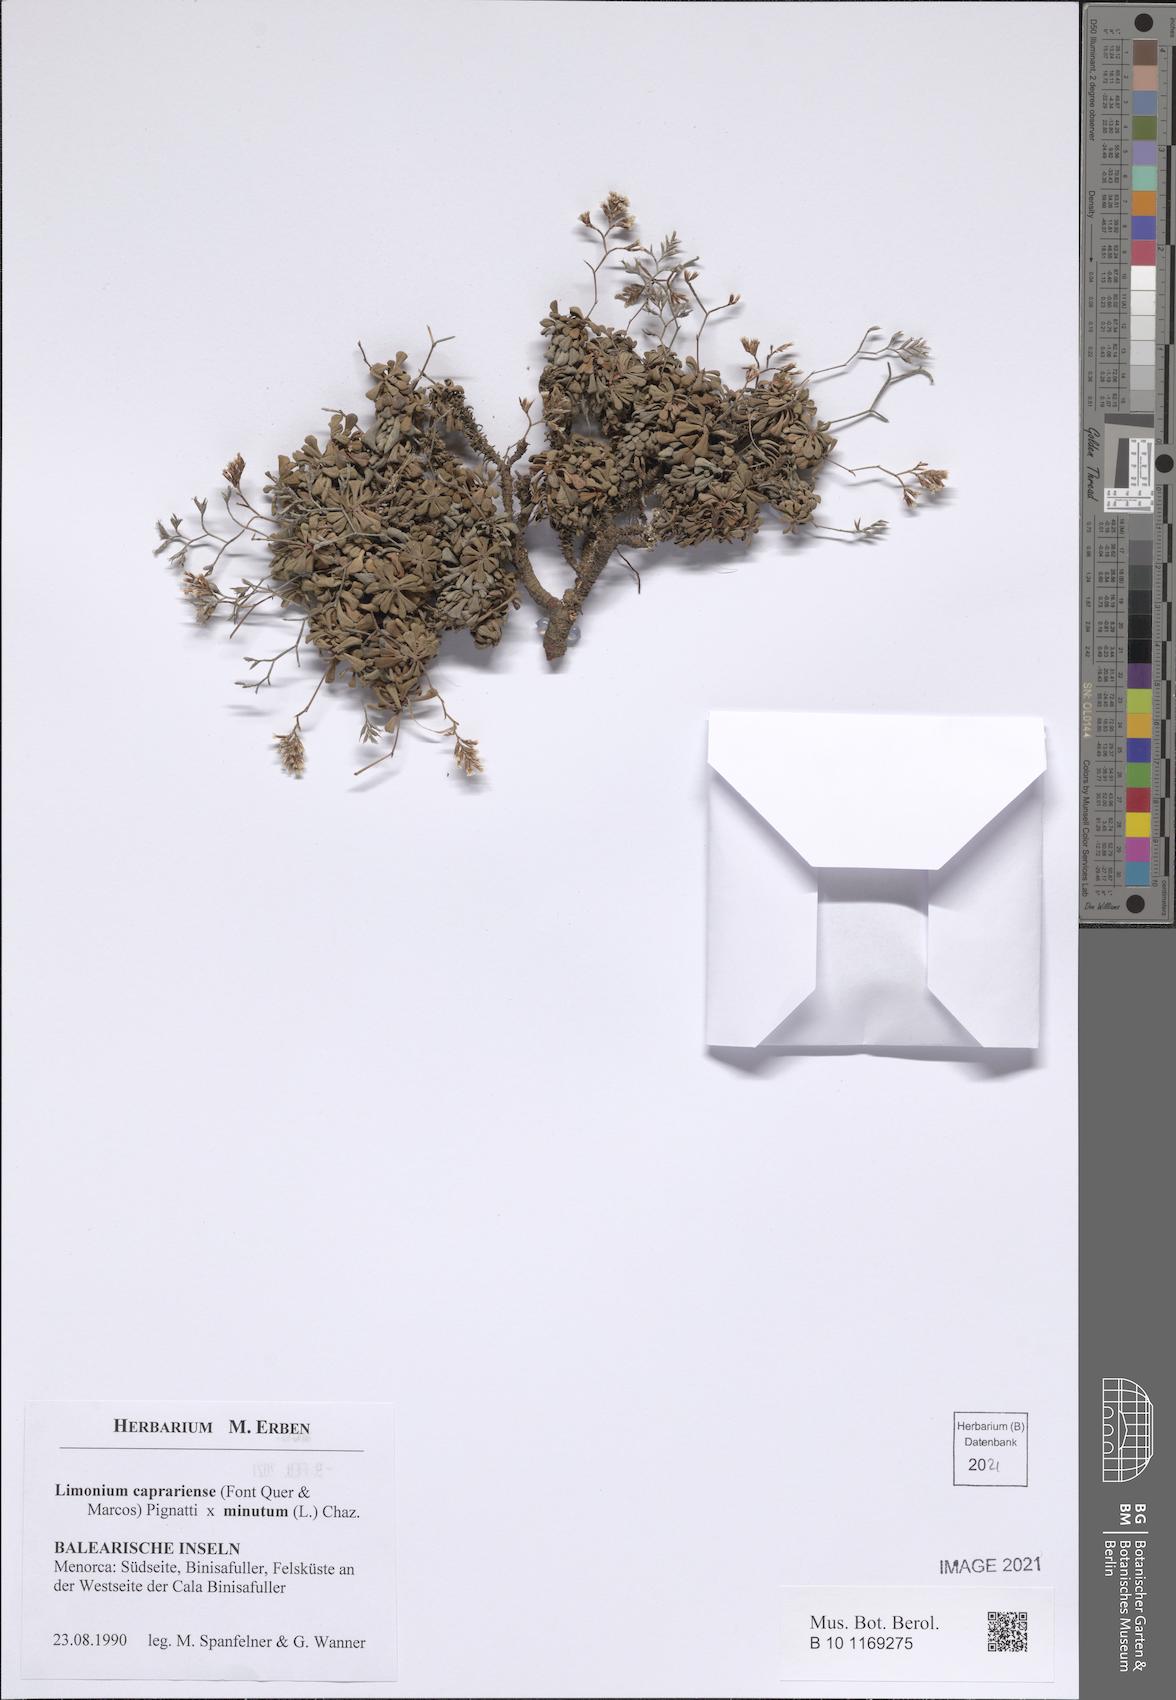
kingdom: Plantae
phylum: Tracheophyta
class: Magnoliopsida
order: Caryophyllales
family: Plumbaginaceae
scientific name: Plumbaginaceae
